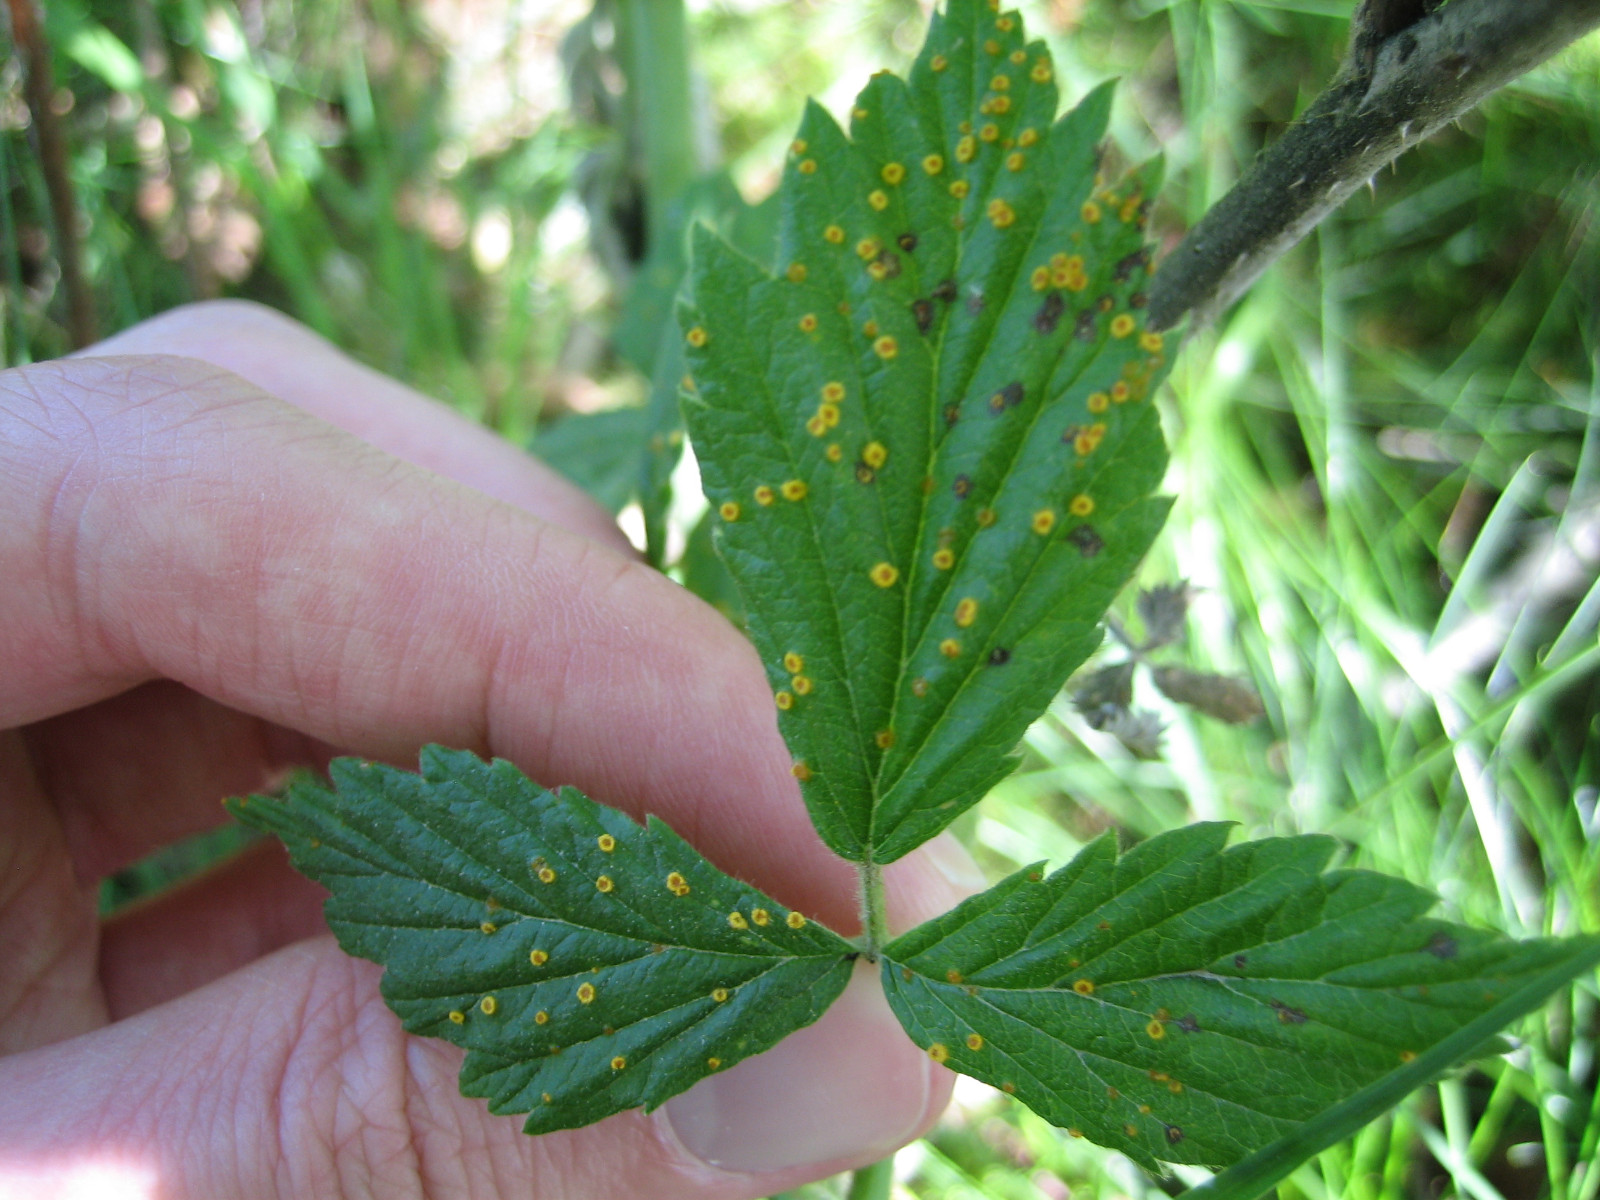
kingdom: Fungi
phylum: Basidiomycota
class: Pucciniomycetes
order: Pucciniales
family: Phragmidiaceae
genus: Phragmidium
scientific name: Phragmidium rubi-idaei
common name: hindbær-flercellerust
